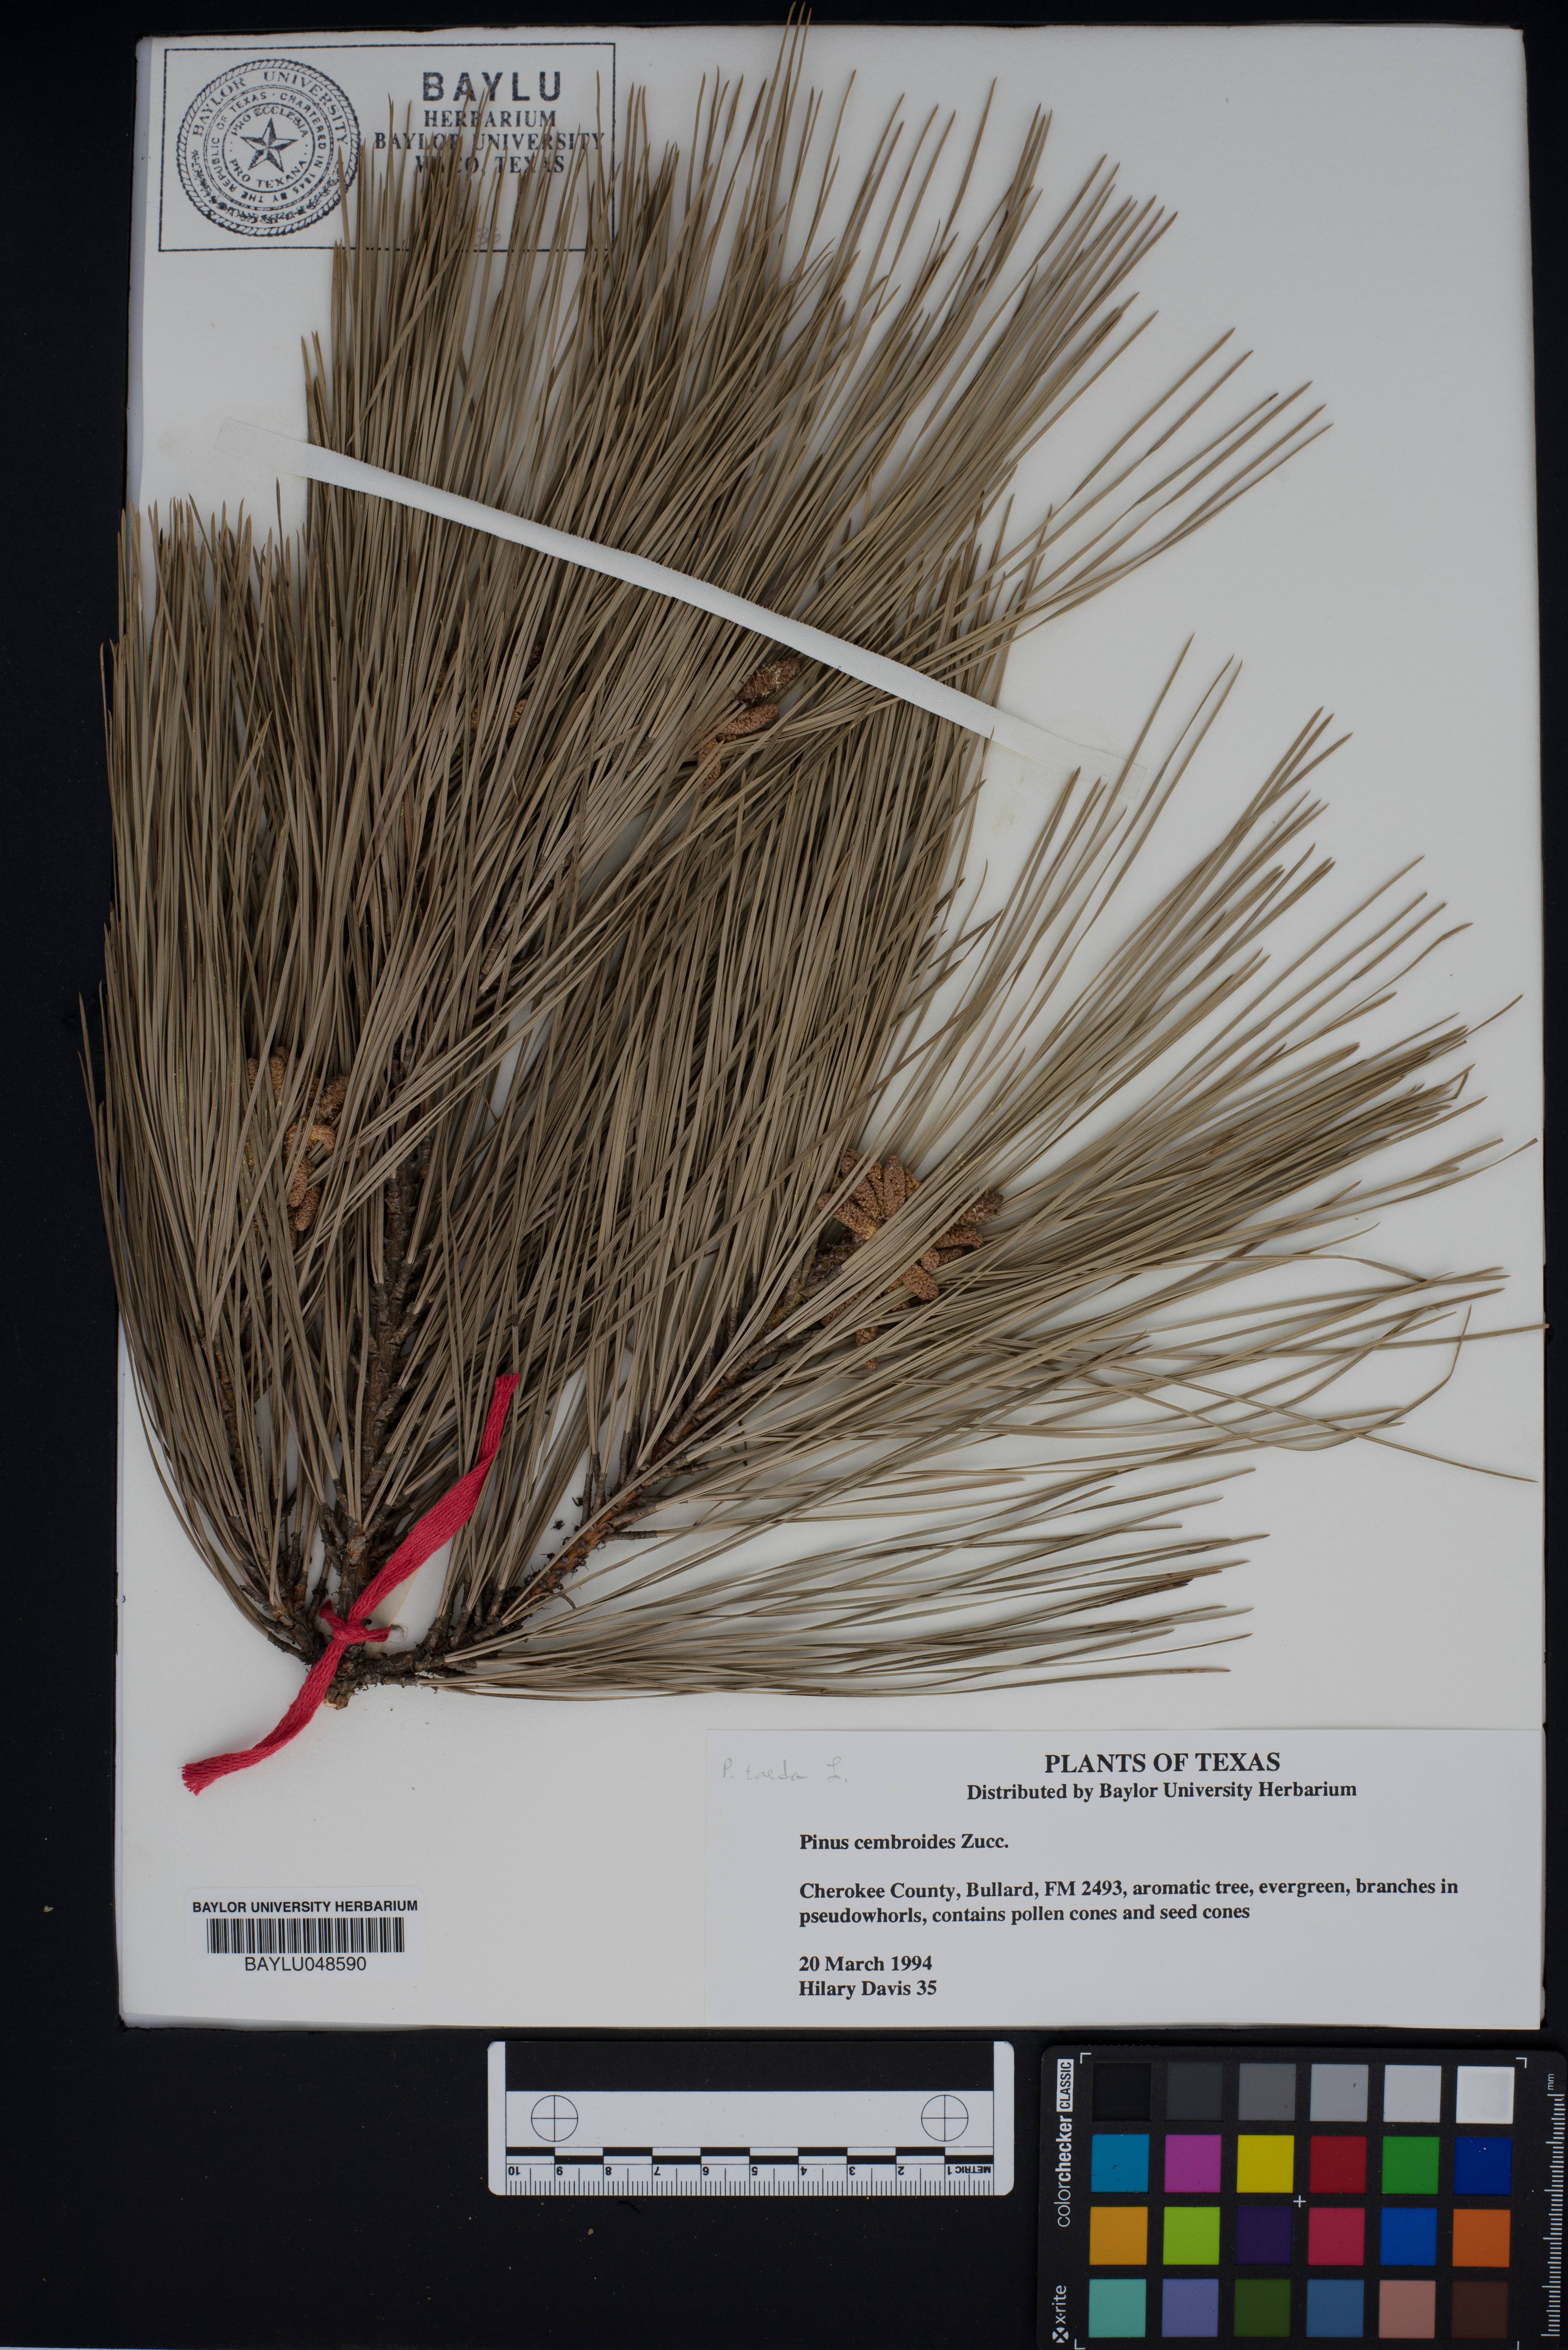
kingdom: Plantae
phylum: Tracheophyta
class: Pinopsida
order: Pinales
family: Pinaceae
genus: Pinus
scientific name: Pinus cembroides
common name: Mexican nut pine
